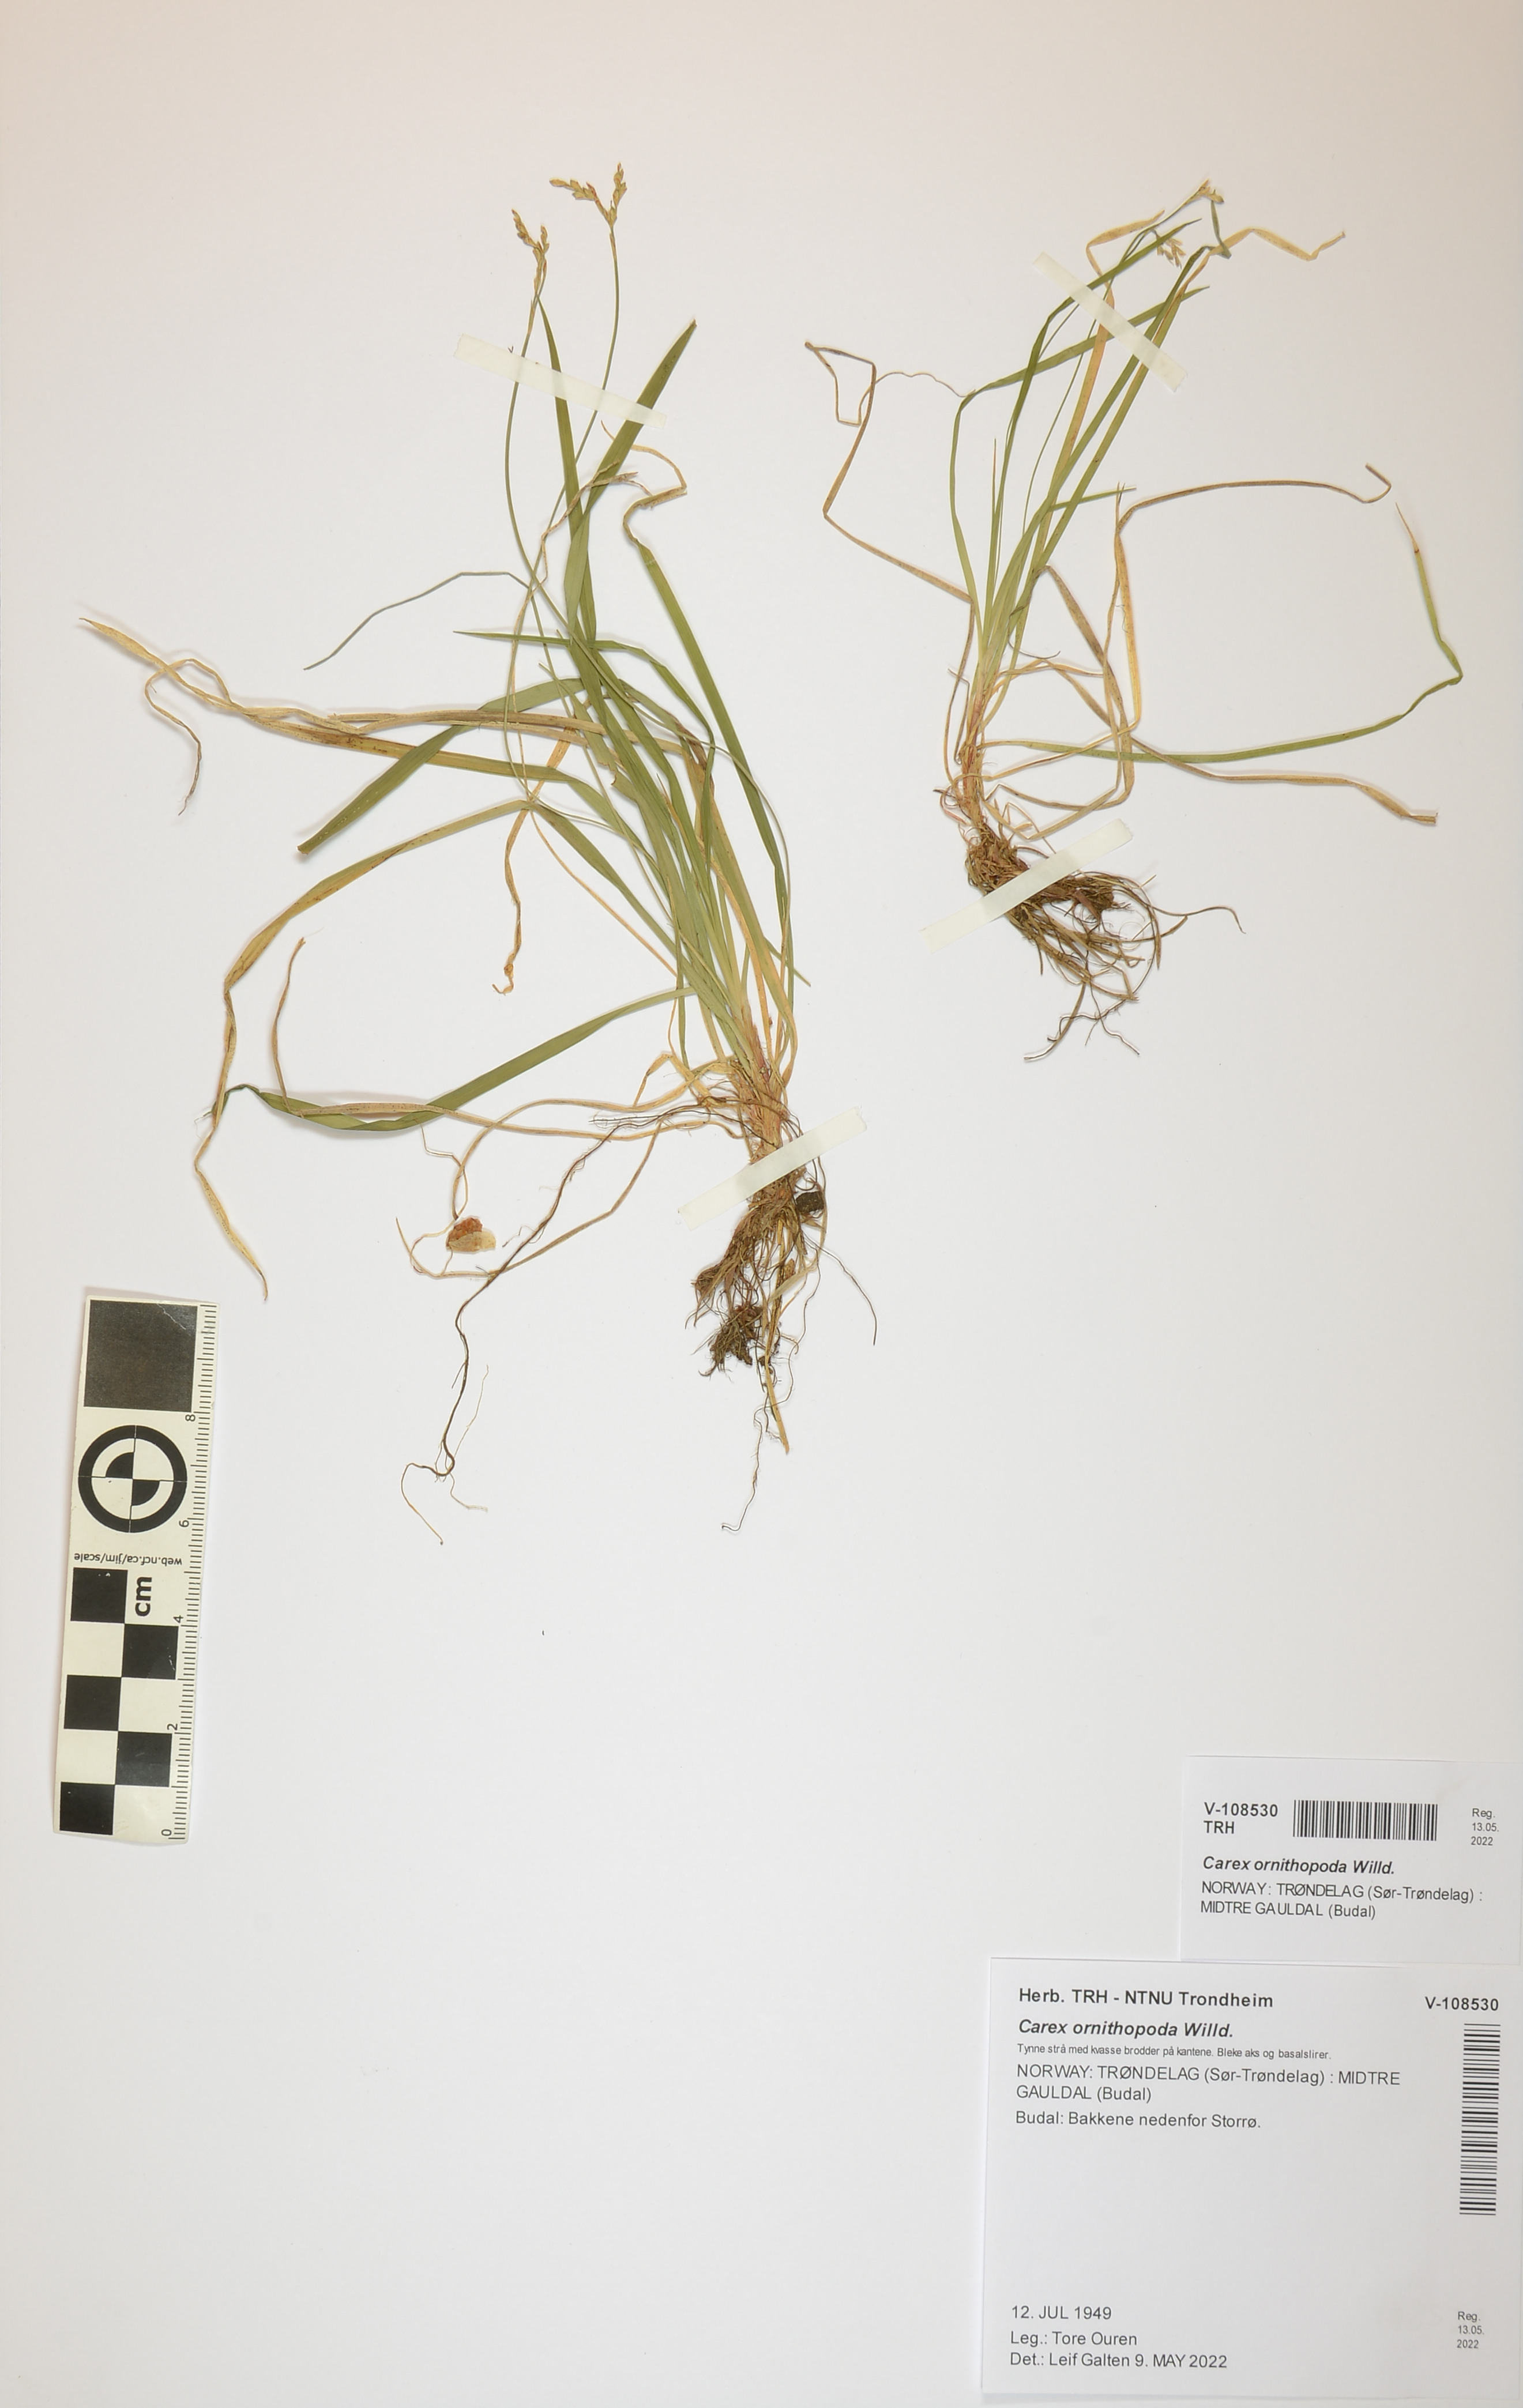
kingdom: Plantae
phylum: Tracheophyta
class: Liliopsida
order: Poales
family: Cyperaceae
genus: Carex
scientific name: Carex ornithopoda
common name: Bird's-foot sedge
